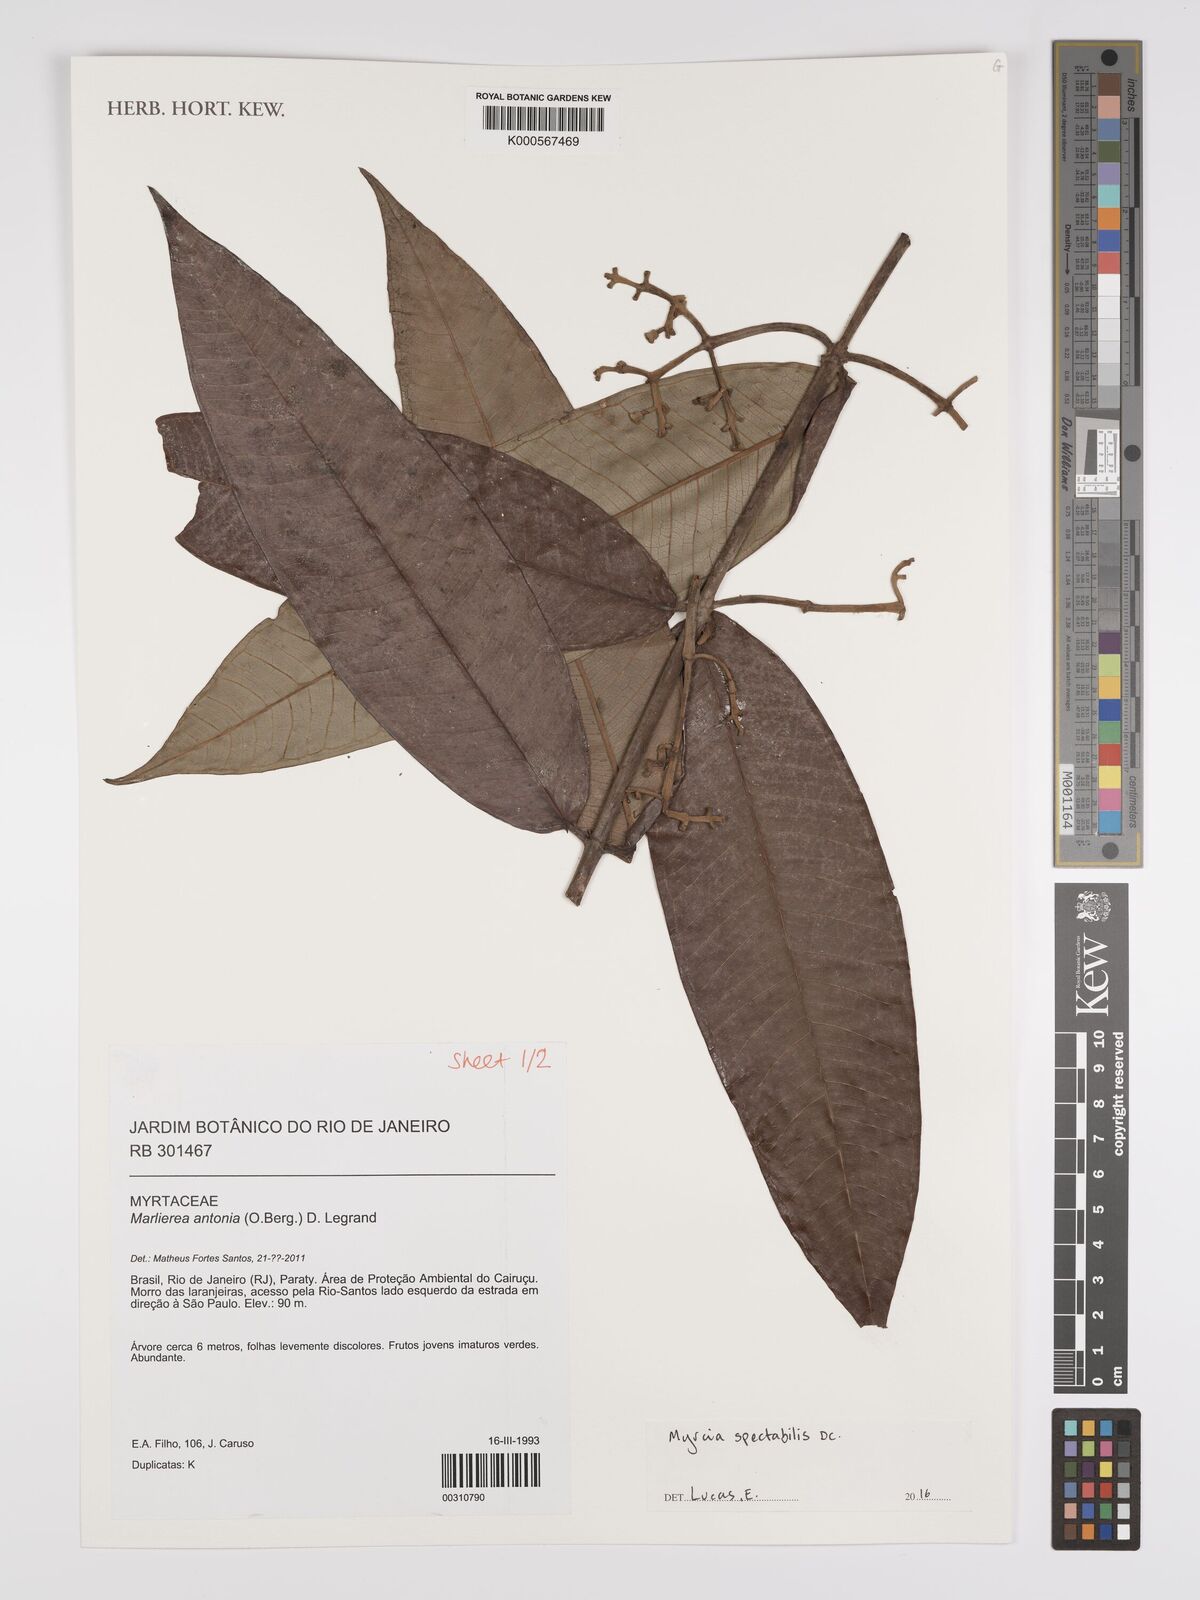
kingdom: Plantae
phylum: Tracheophyta
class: Magnoliopsida
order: Myrtales
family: Myrtaceae
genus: Myrcia
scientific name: Myrcia spectabilis
